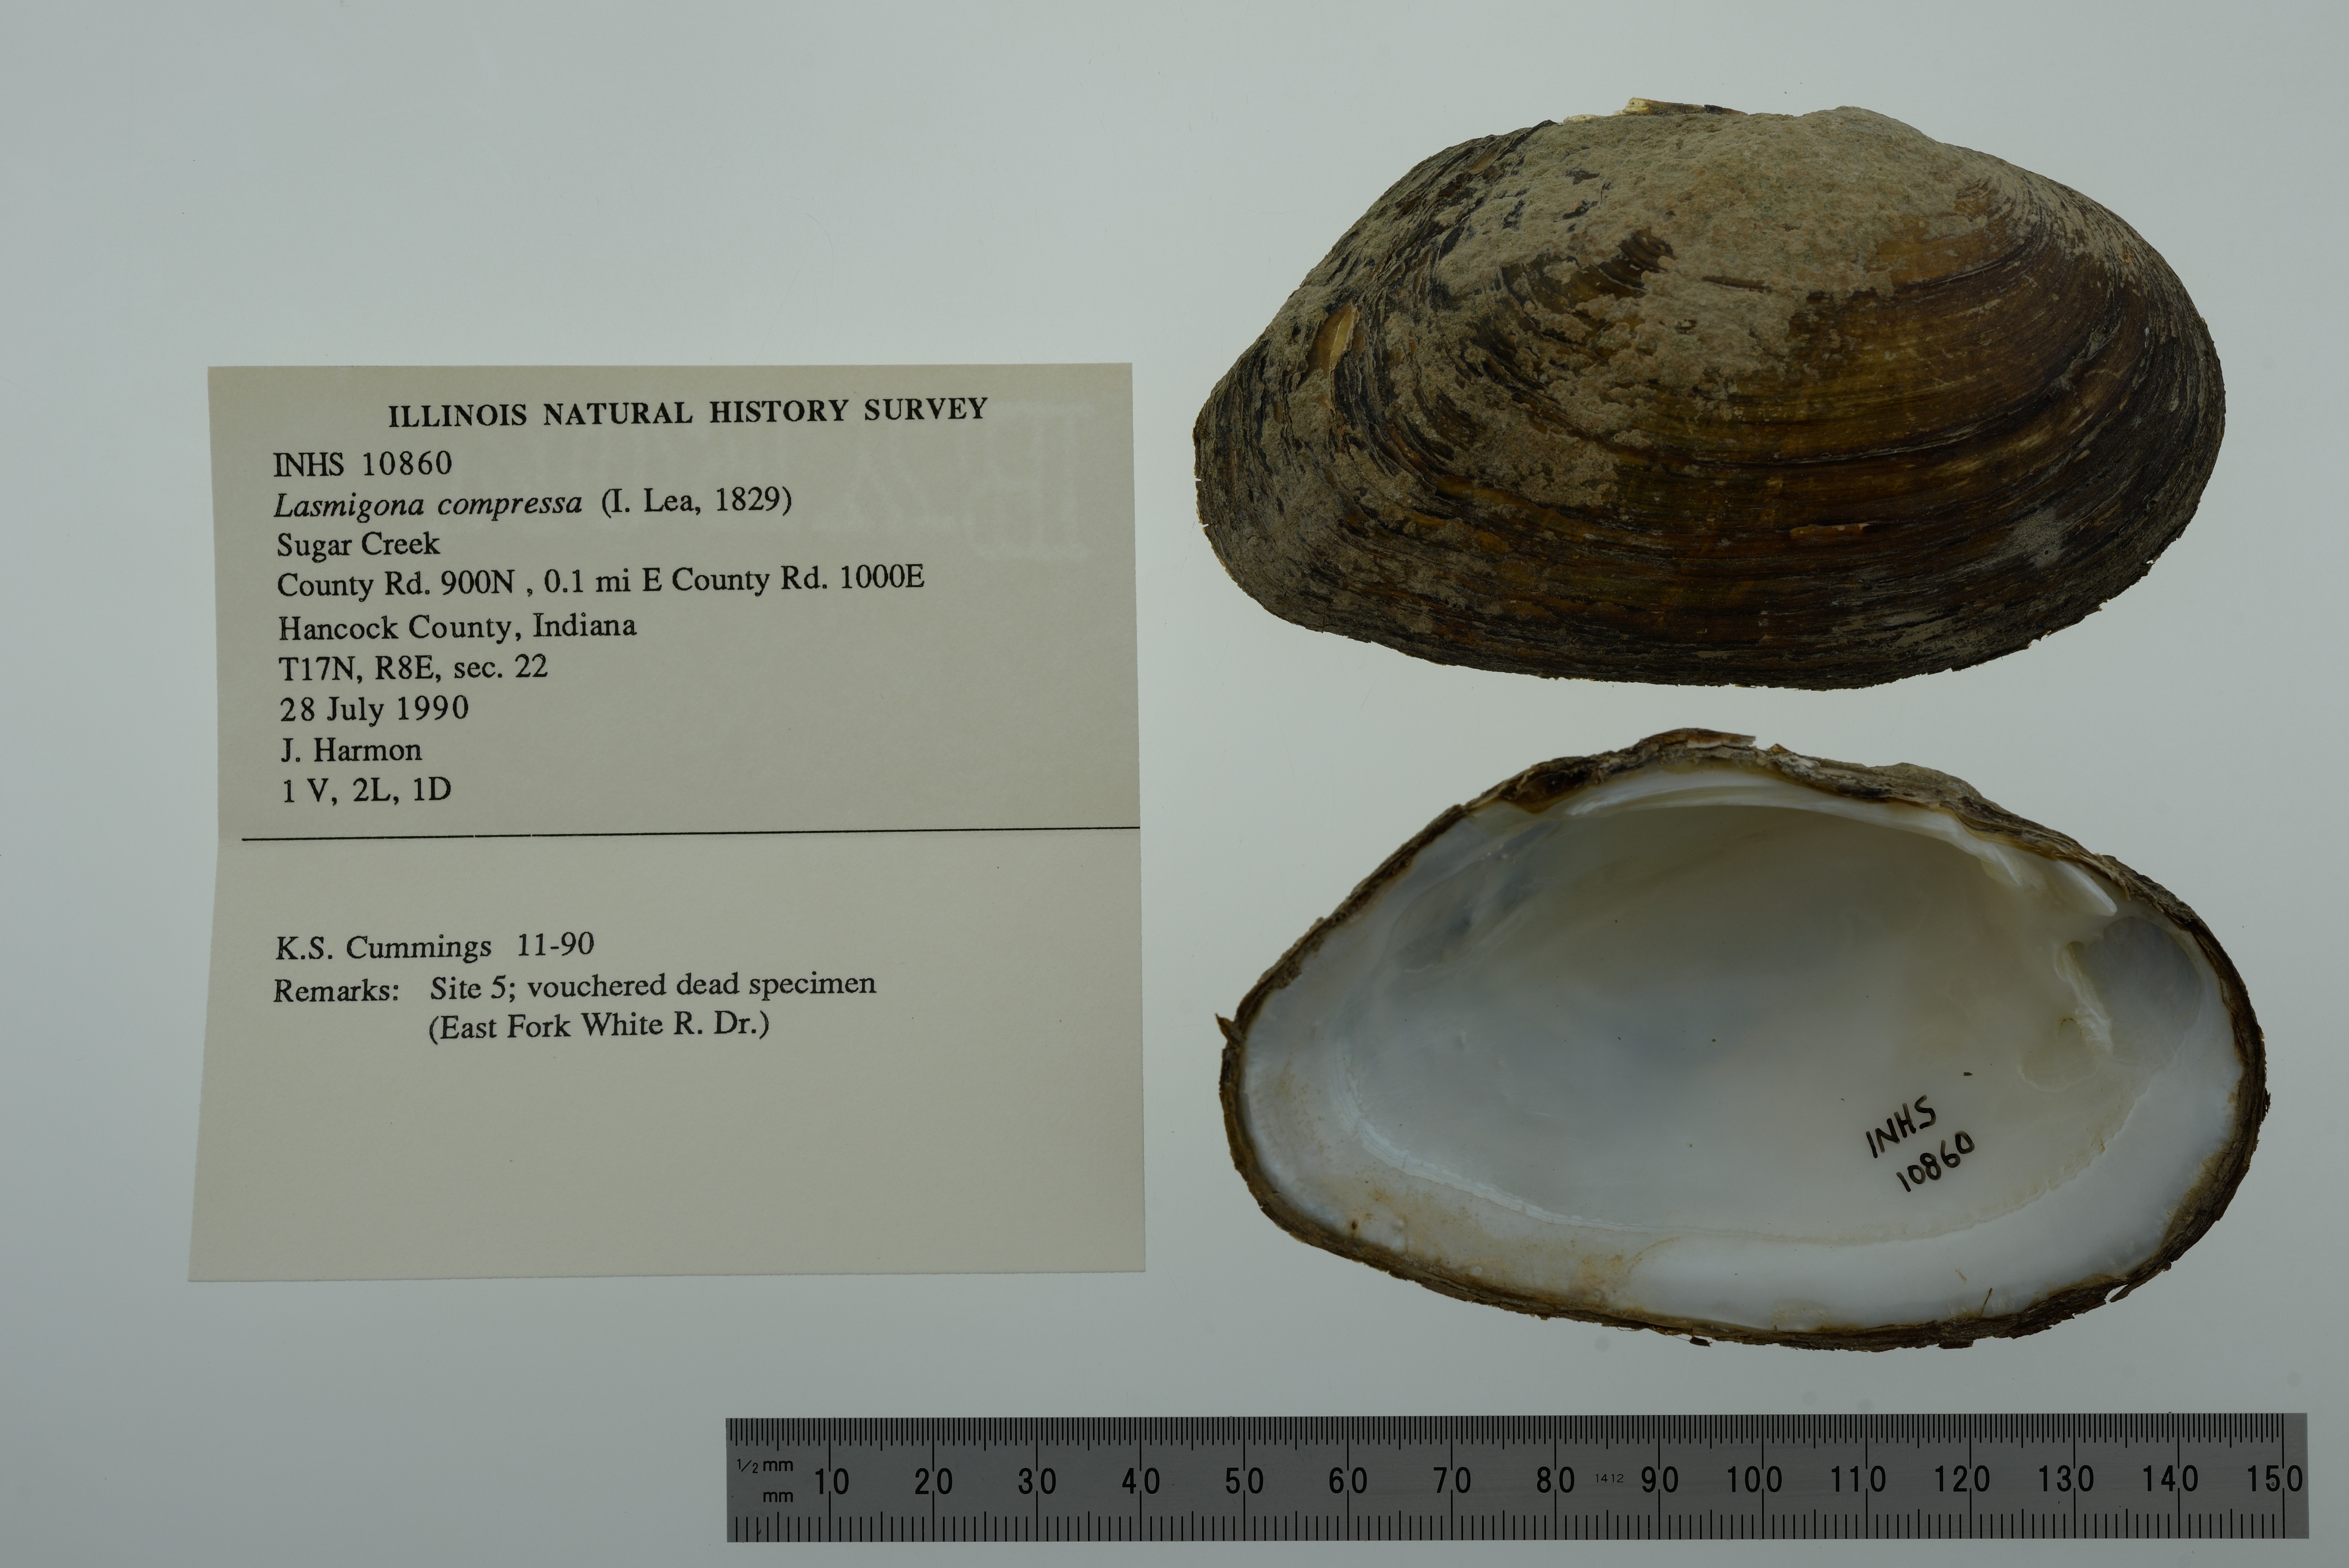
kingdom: Animalia
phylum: Mollusca
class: Bivalvia
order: Unionida
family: Unionidae
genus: Lasmigona
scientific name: Lasmigona compressa
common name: Creek heelsplitter
